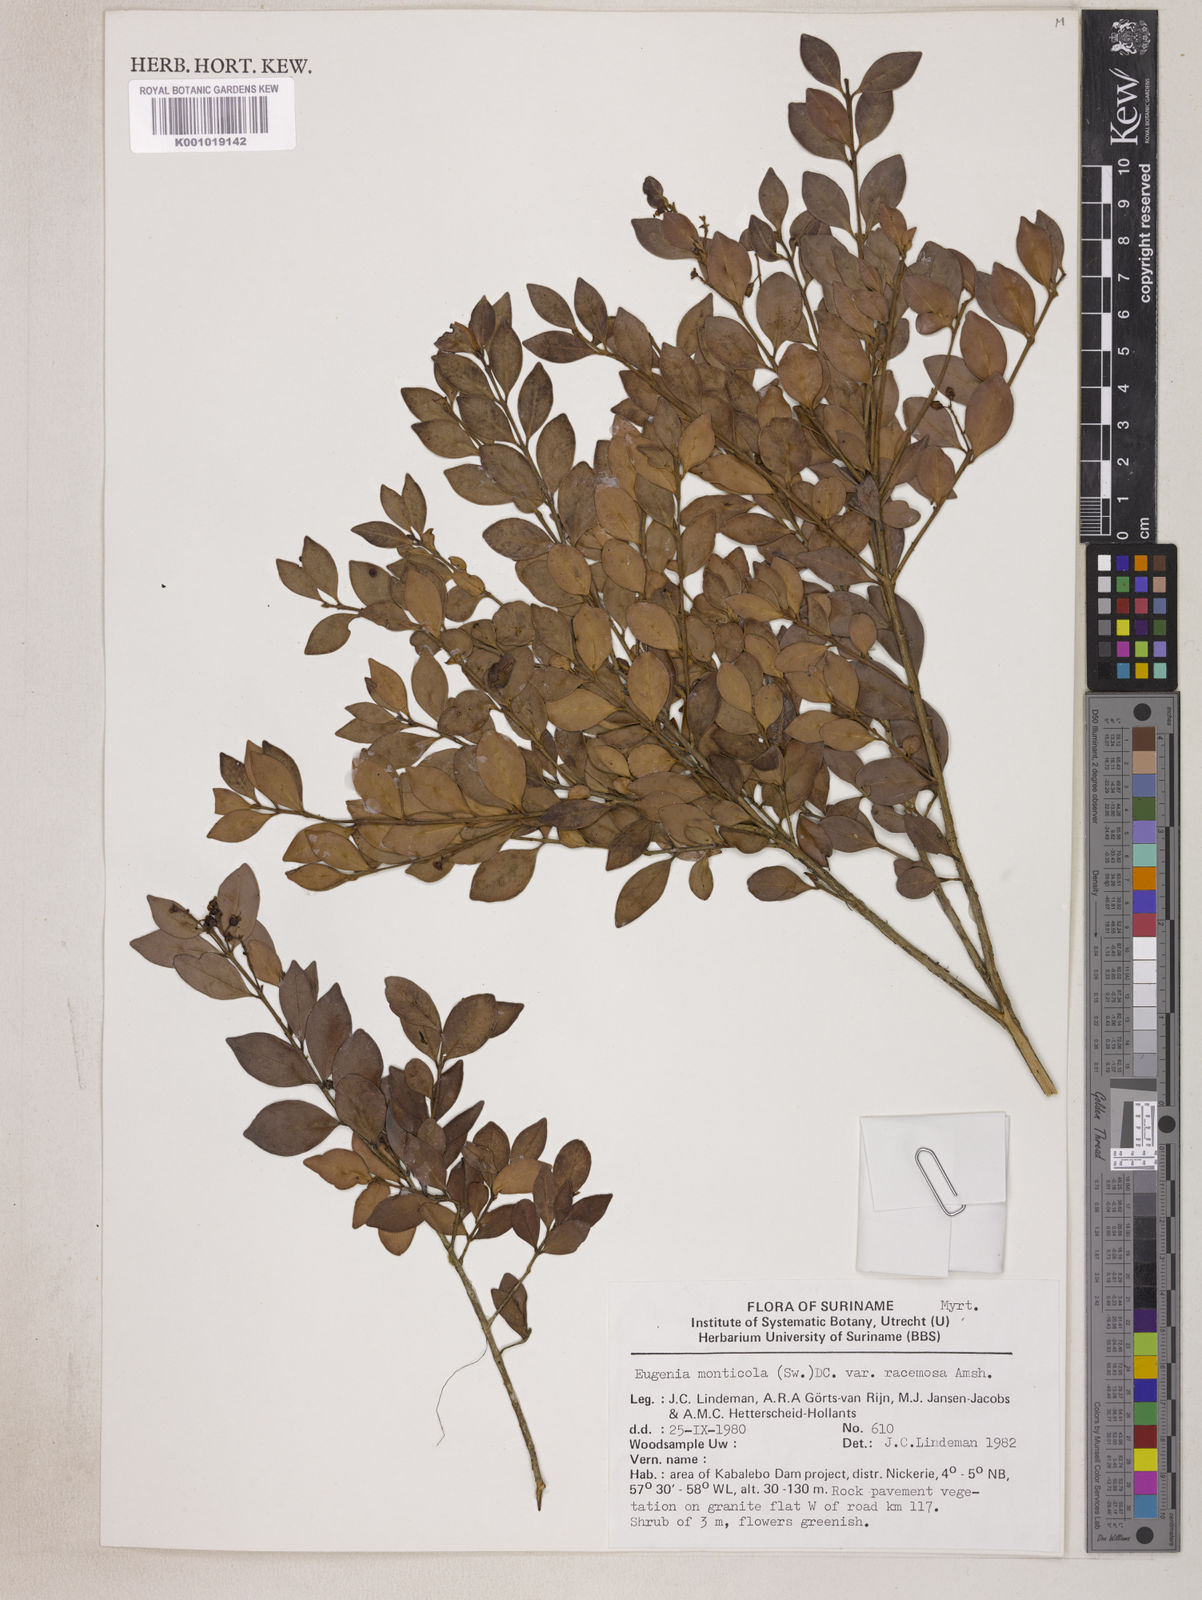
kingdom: Plantae
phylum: Tracheophyta
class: Magnoliopsida
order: Myrtales
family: Myrtaceae
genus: Eugenia
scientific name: Eugenia monticola
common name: Birds berry
